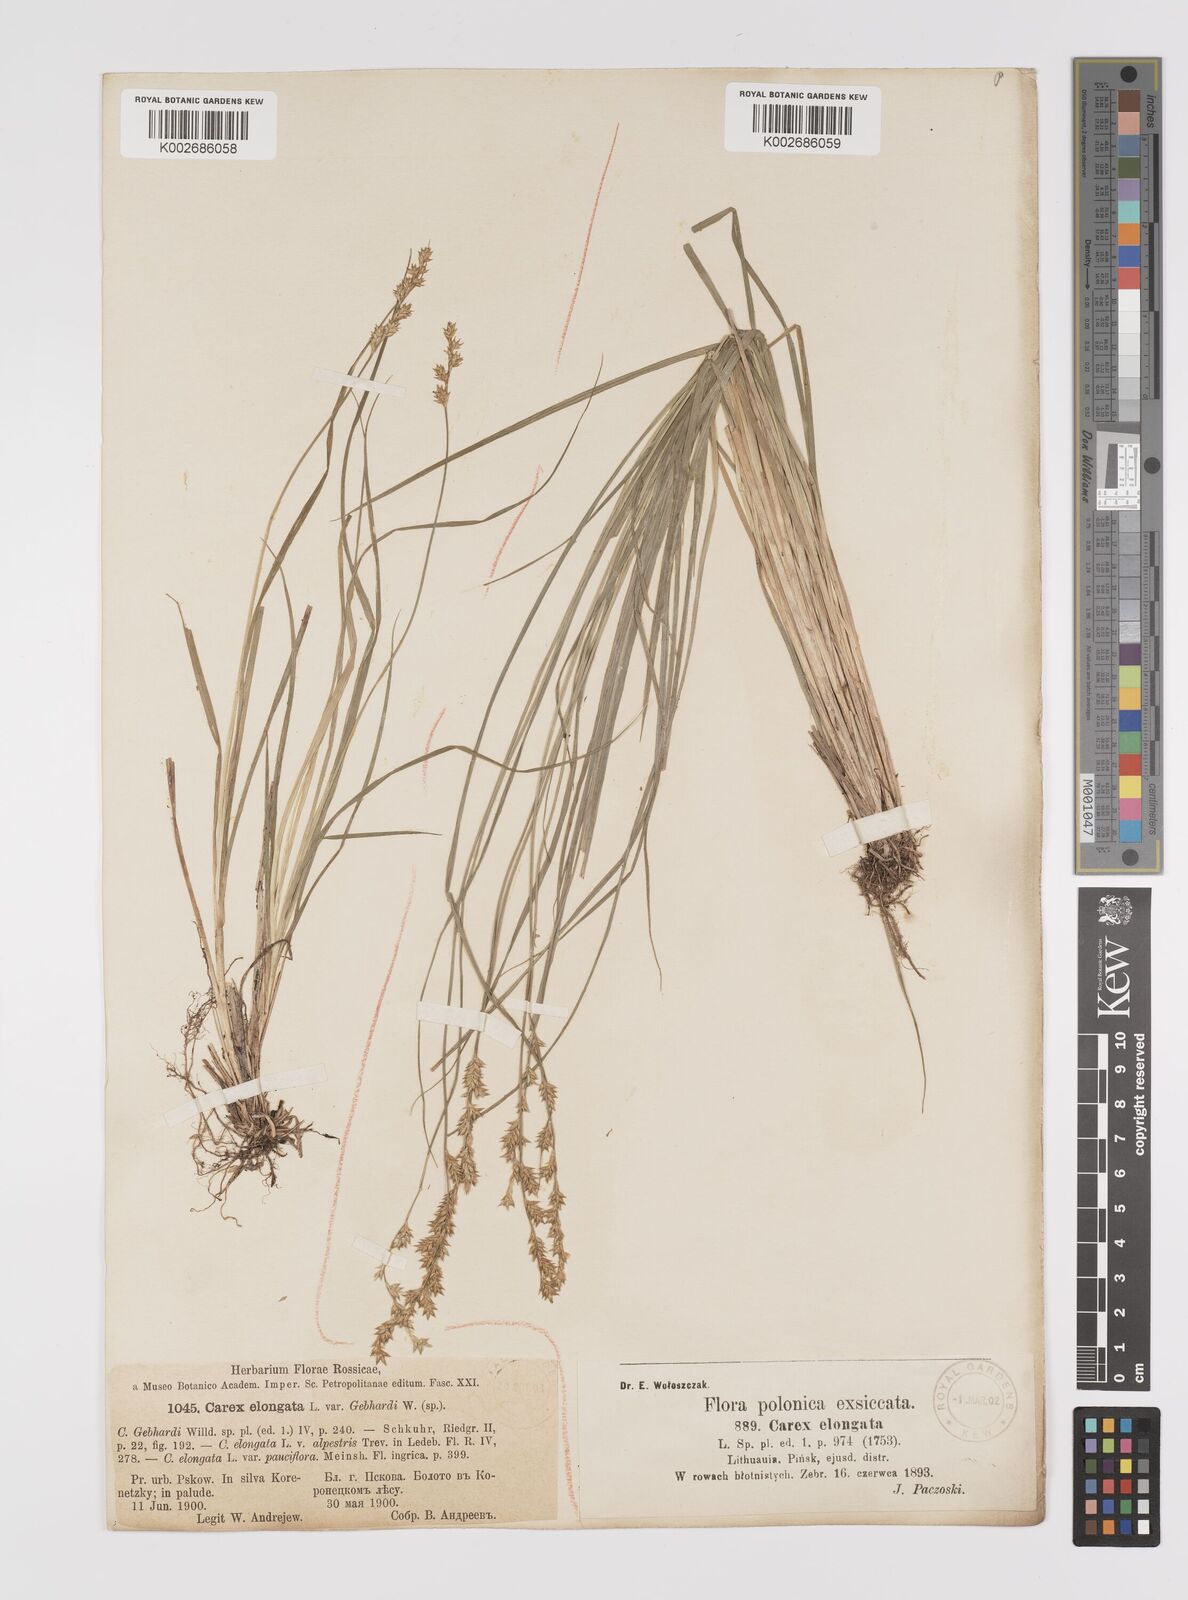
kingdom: Plantae
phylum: Tracheophyta
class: Liliopsida
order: Poales
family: Cyperaceae
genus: Carex
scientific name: Carex elongata
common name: Elongated sedge
